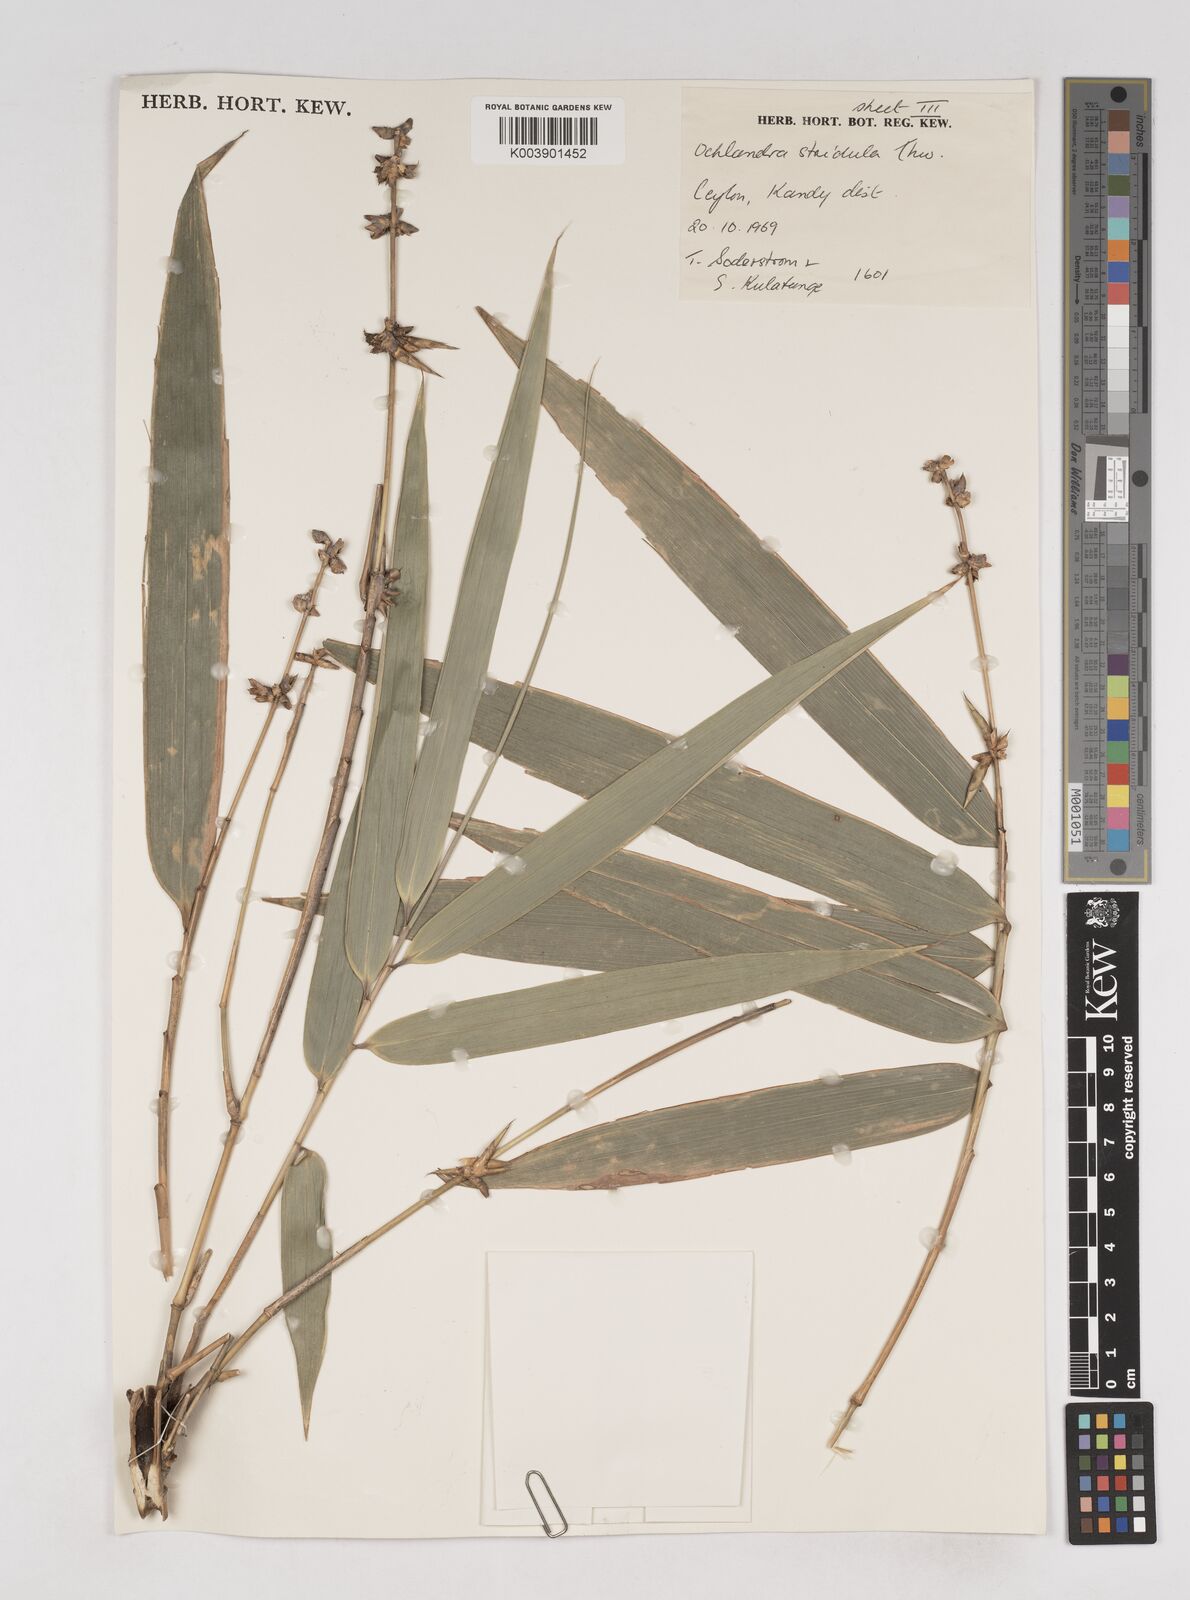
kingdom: Plantae
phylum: Tracheophyta
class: Liliopsida
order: Poales
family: Poaceae
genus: Ochlandra
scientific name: Ochlandra stridula
